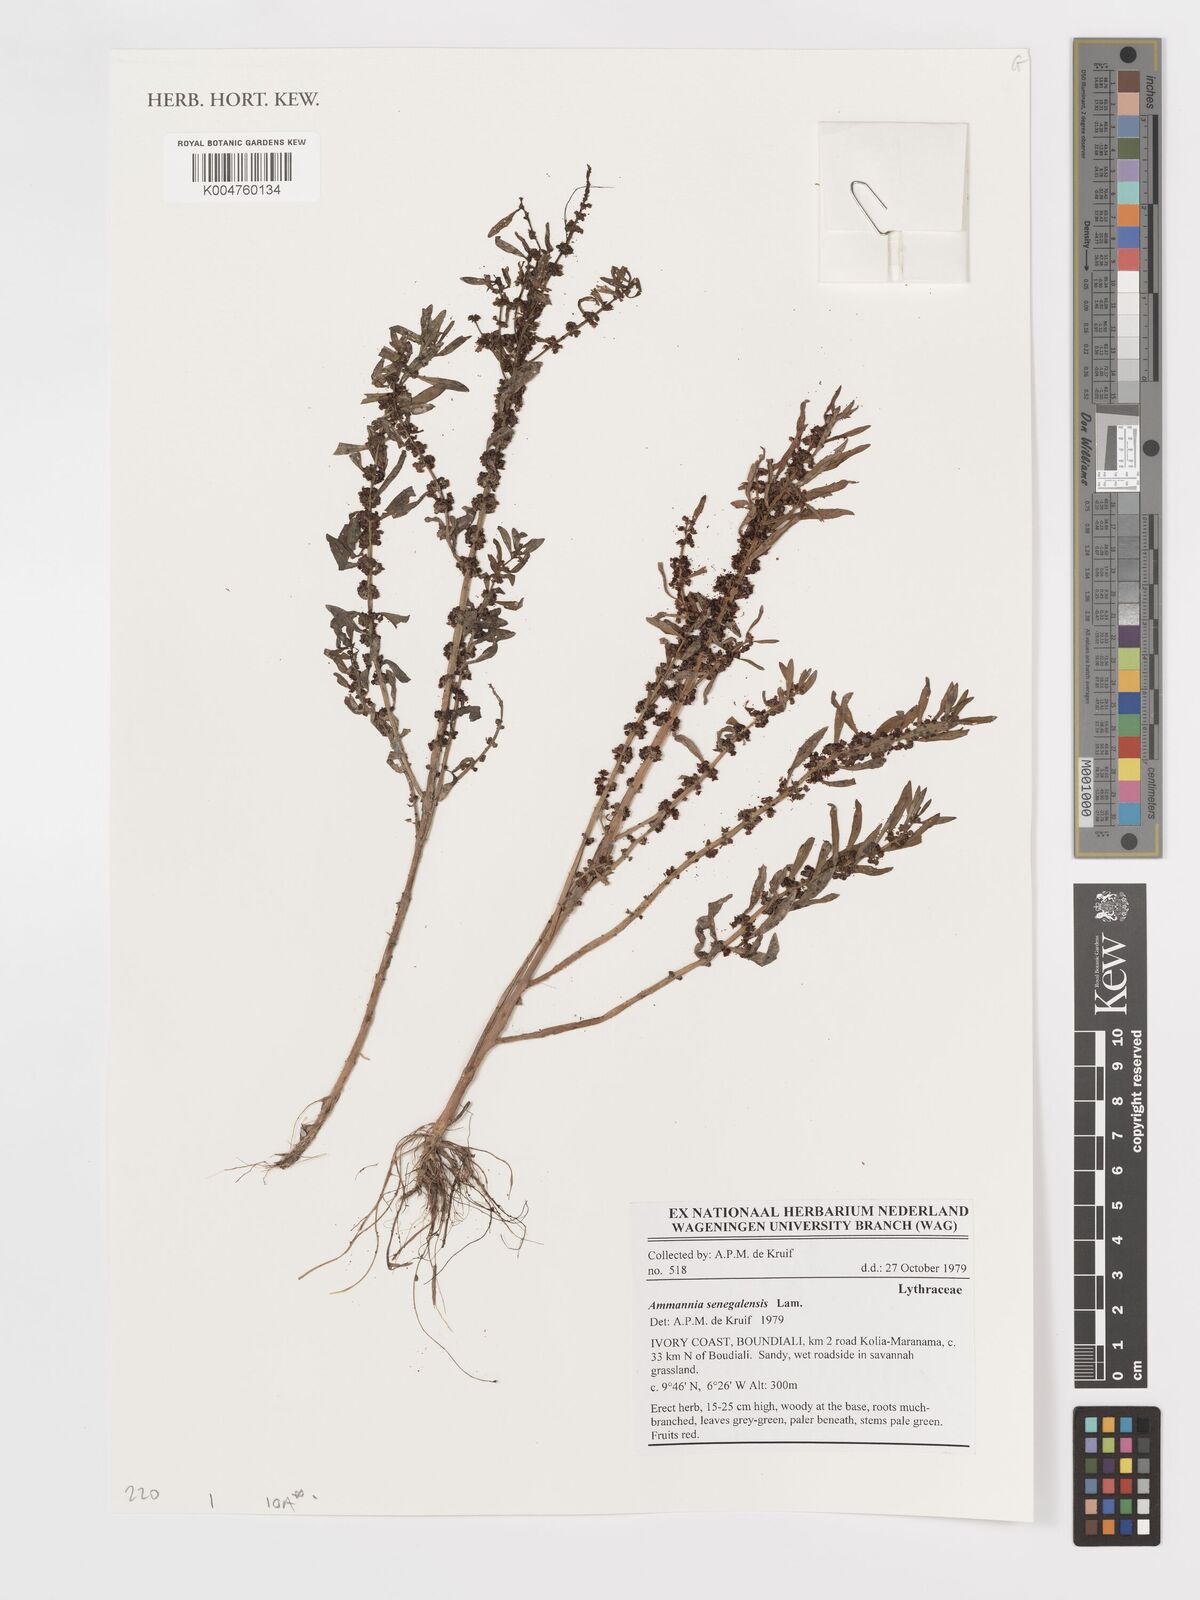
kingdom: Plantae
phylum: Tracheophyta
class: Magnoliopsida
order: Myrtales
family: Lythraceae
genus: Ammannia
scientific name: Ammannia senegalensis
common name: Red ammannia
